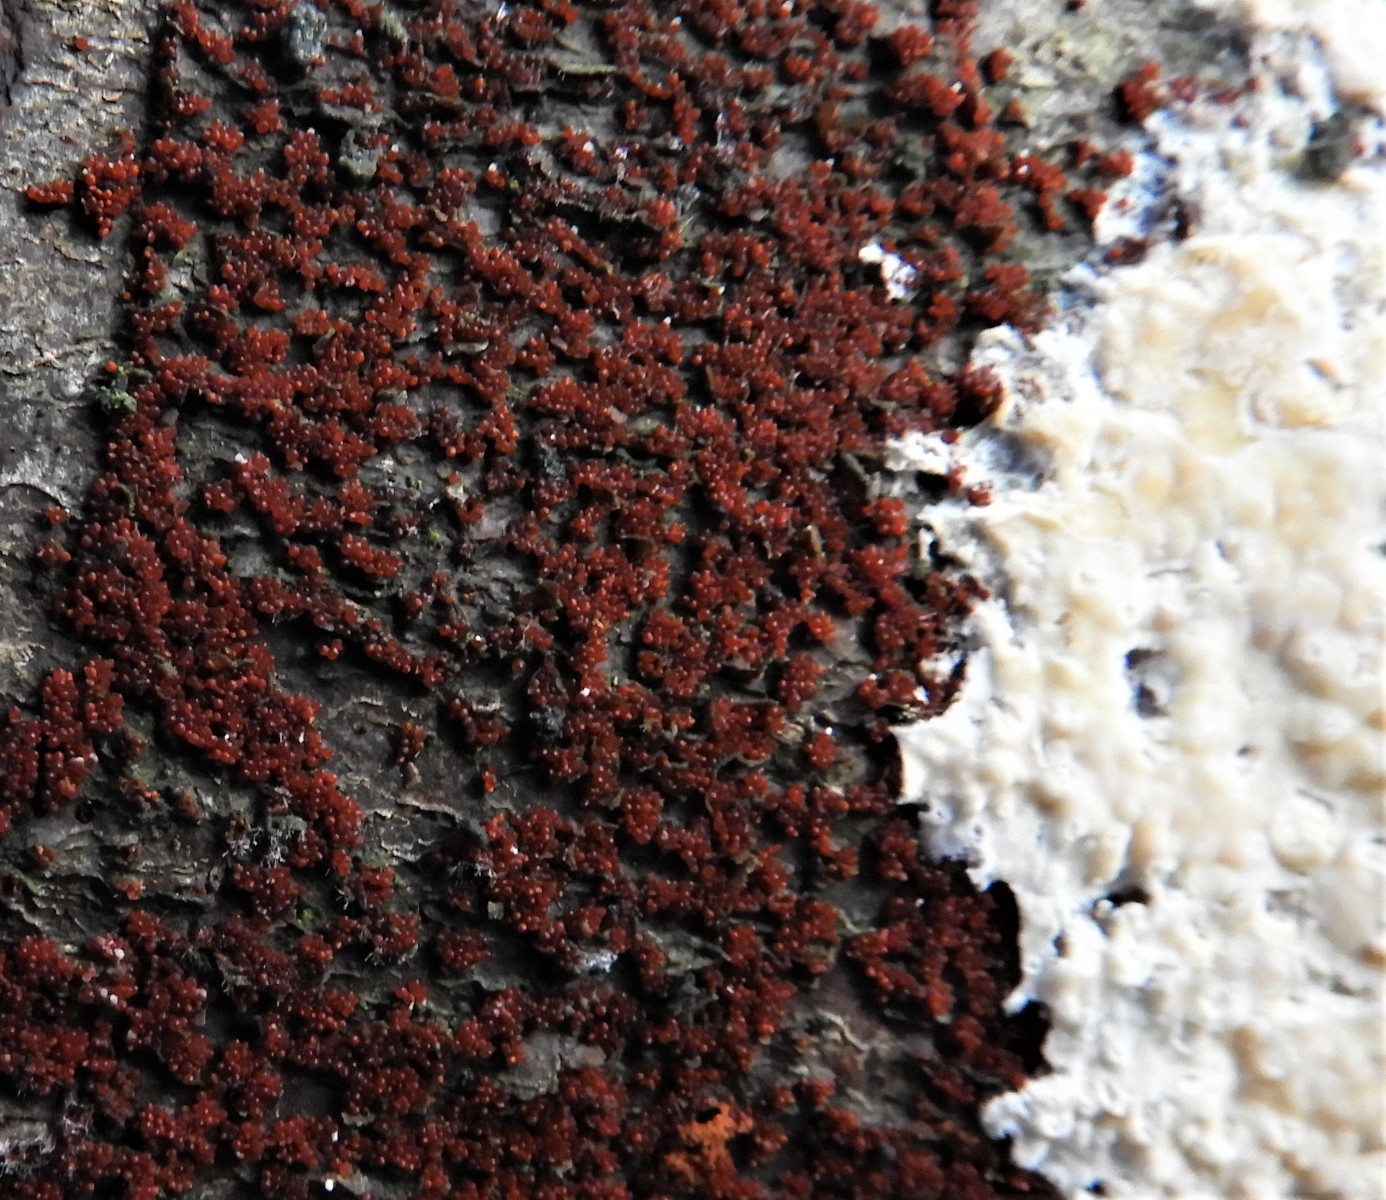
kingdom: Fungi
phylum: Ascomycota
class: Sordariomycetes
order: Hypocreales
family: Nectriaceae
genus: Nectria
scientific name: Nectria cinnabarina
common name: almindelig cinnobersvamp
